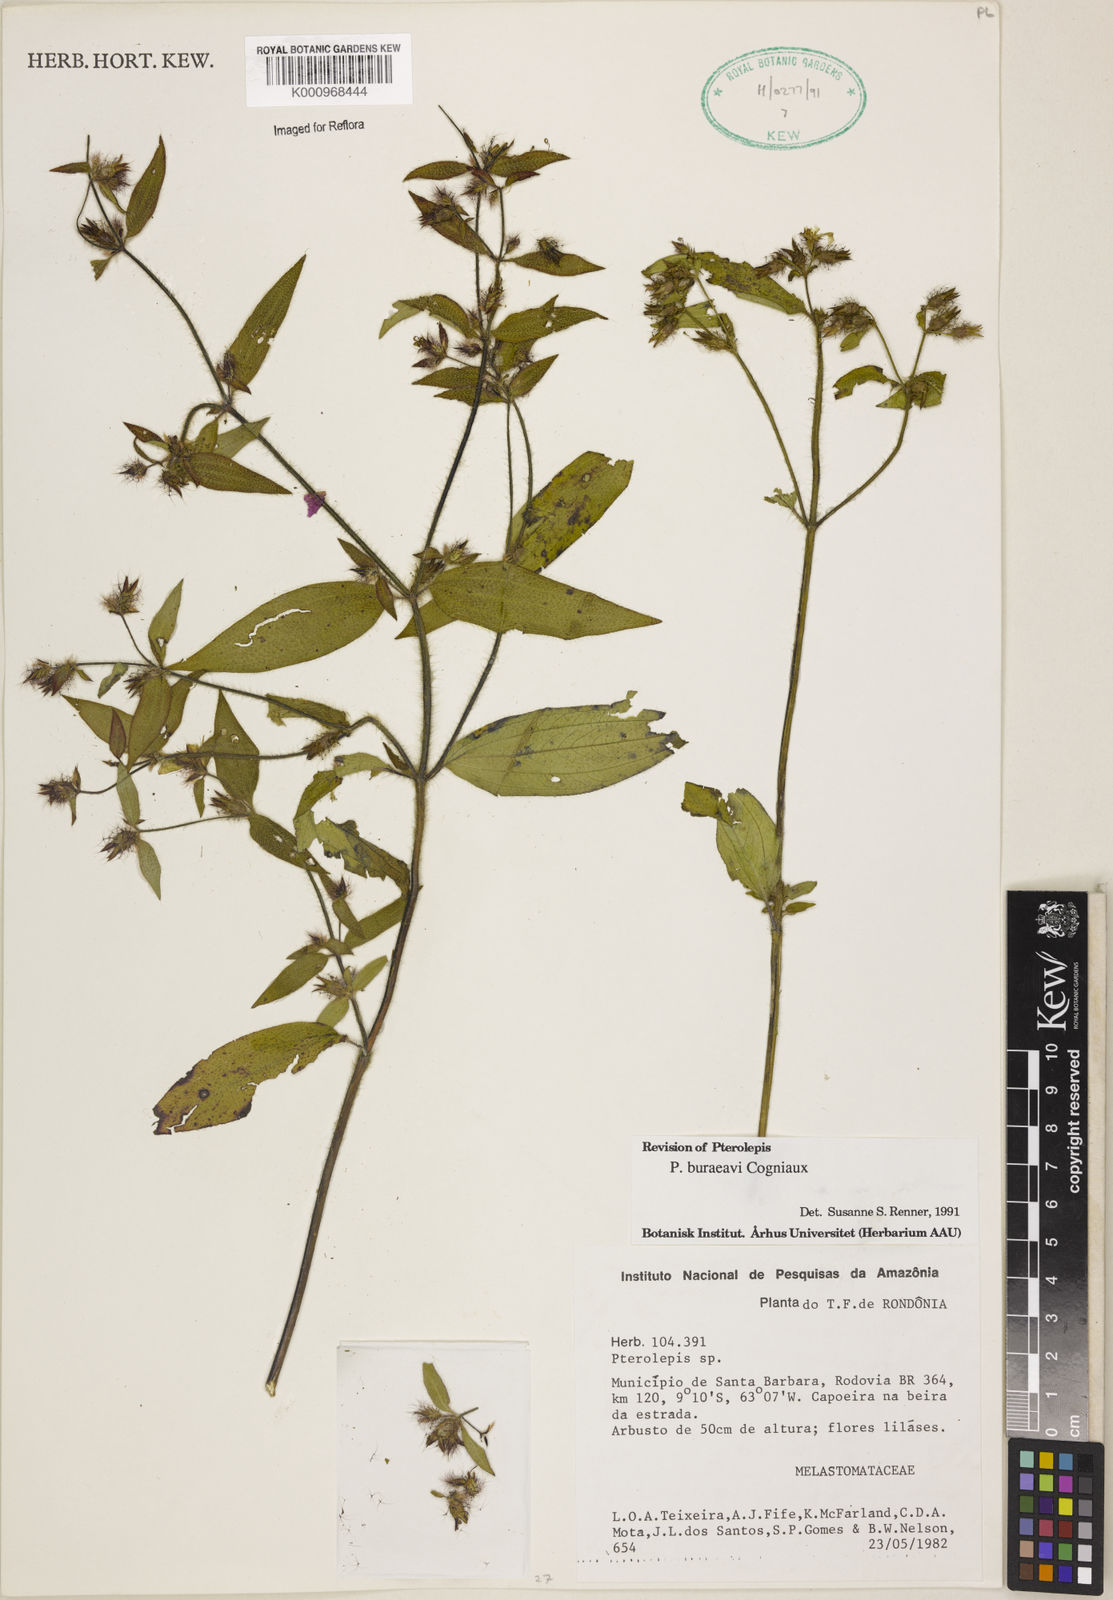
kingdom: Plantae
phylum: Tracheophyta
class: Magnoliopsida
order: Myrtales
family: Melastomataceae
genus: Pterolepis
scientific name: Pterolepis buraeavi
